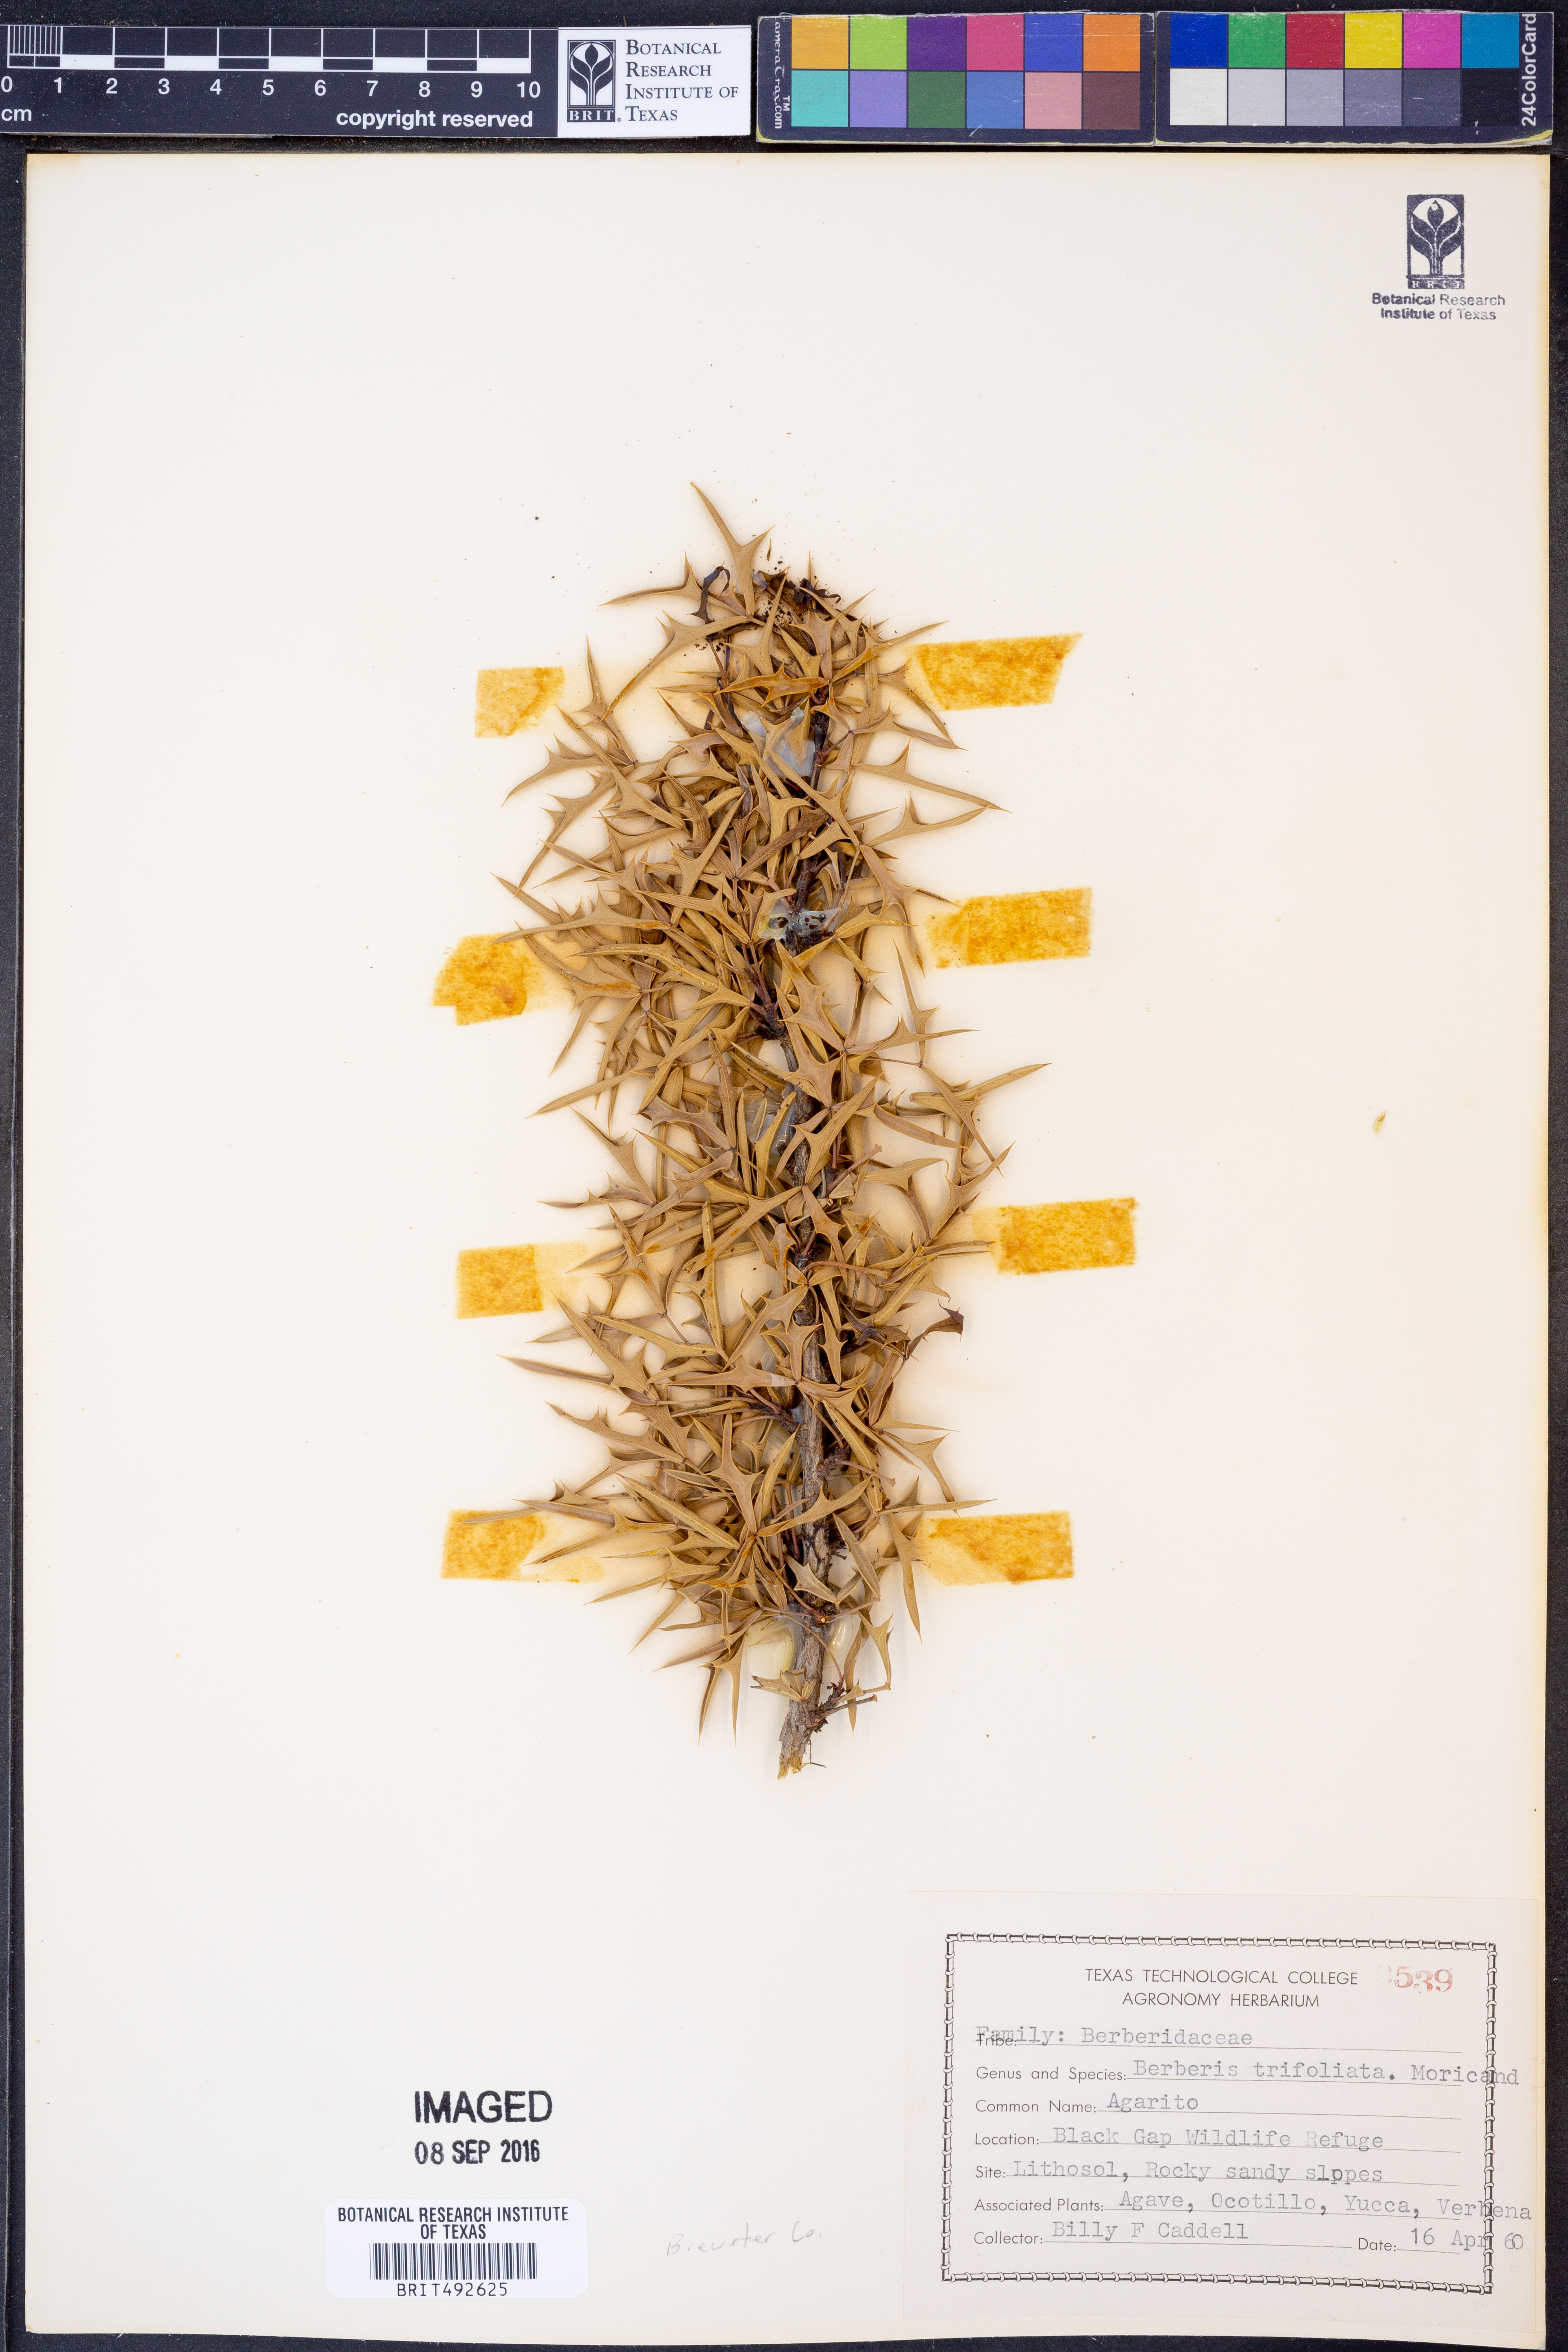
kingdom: Plantae
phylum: Tracheophyta
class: Magnoliopsida
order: Ranunculales
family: Berberidaceae
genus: Alloberberis
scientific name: Alloberberis fremontii
